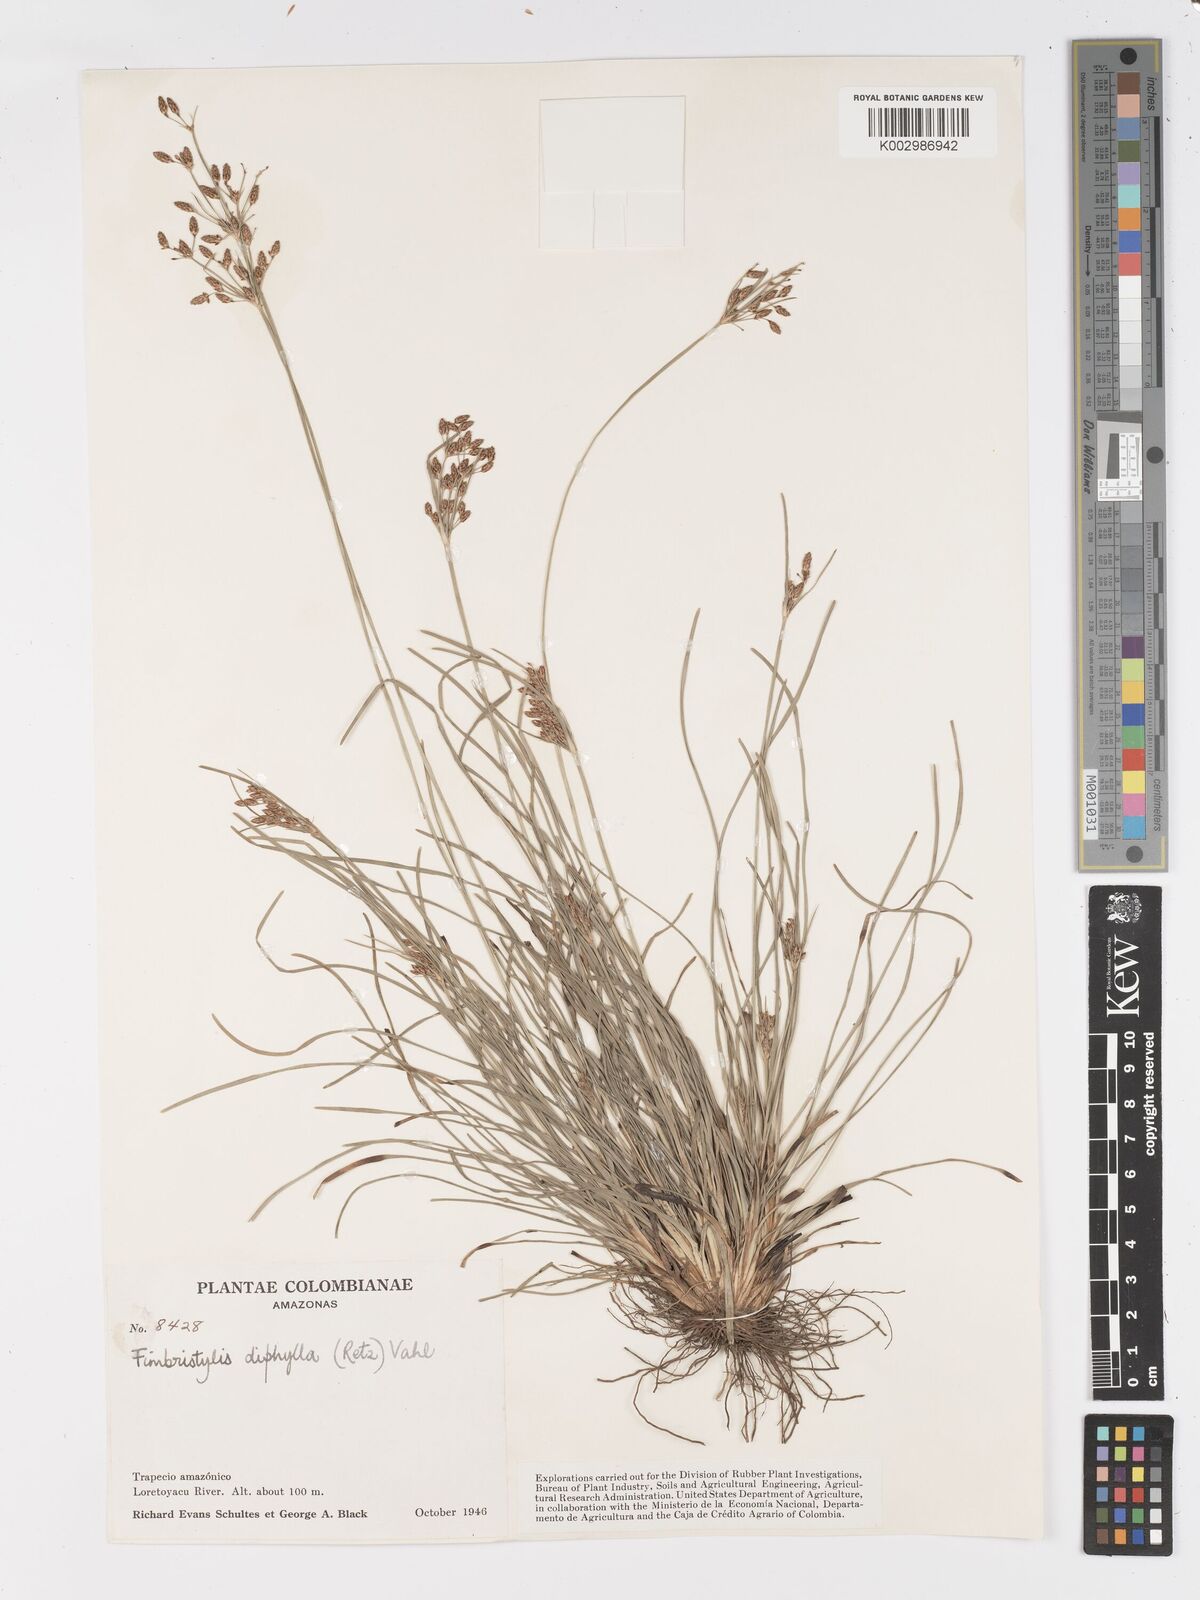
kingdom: Plantae
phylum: Tracheophyta
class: Liliopsida
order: Poales
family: Cyperaceae
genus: Fimbristylis
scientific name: Fimbristylis dichotoma
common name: Forked fimbry
